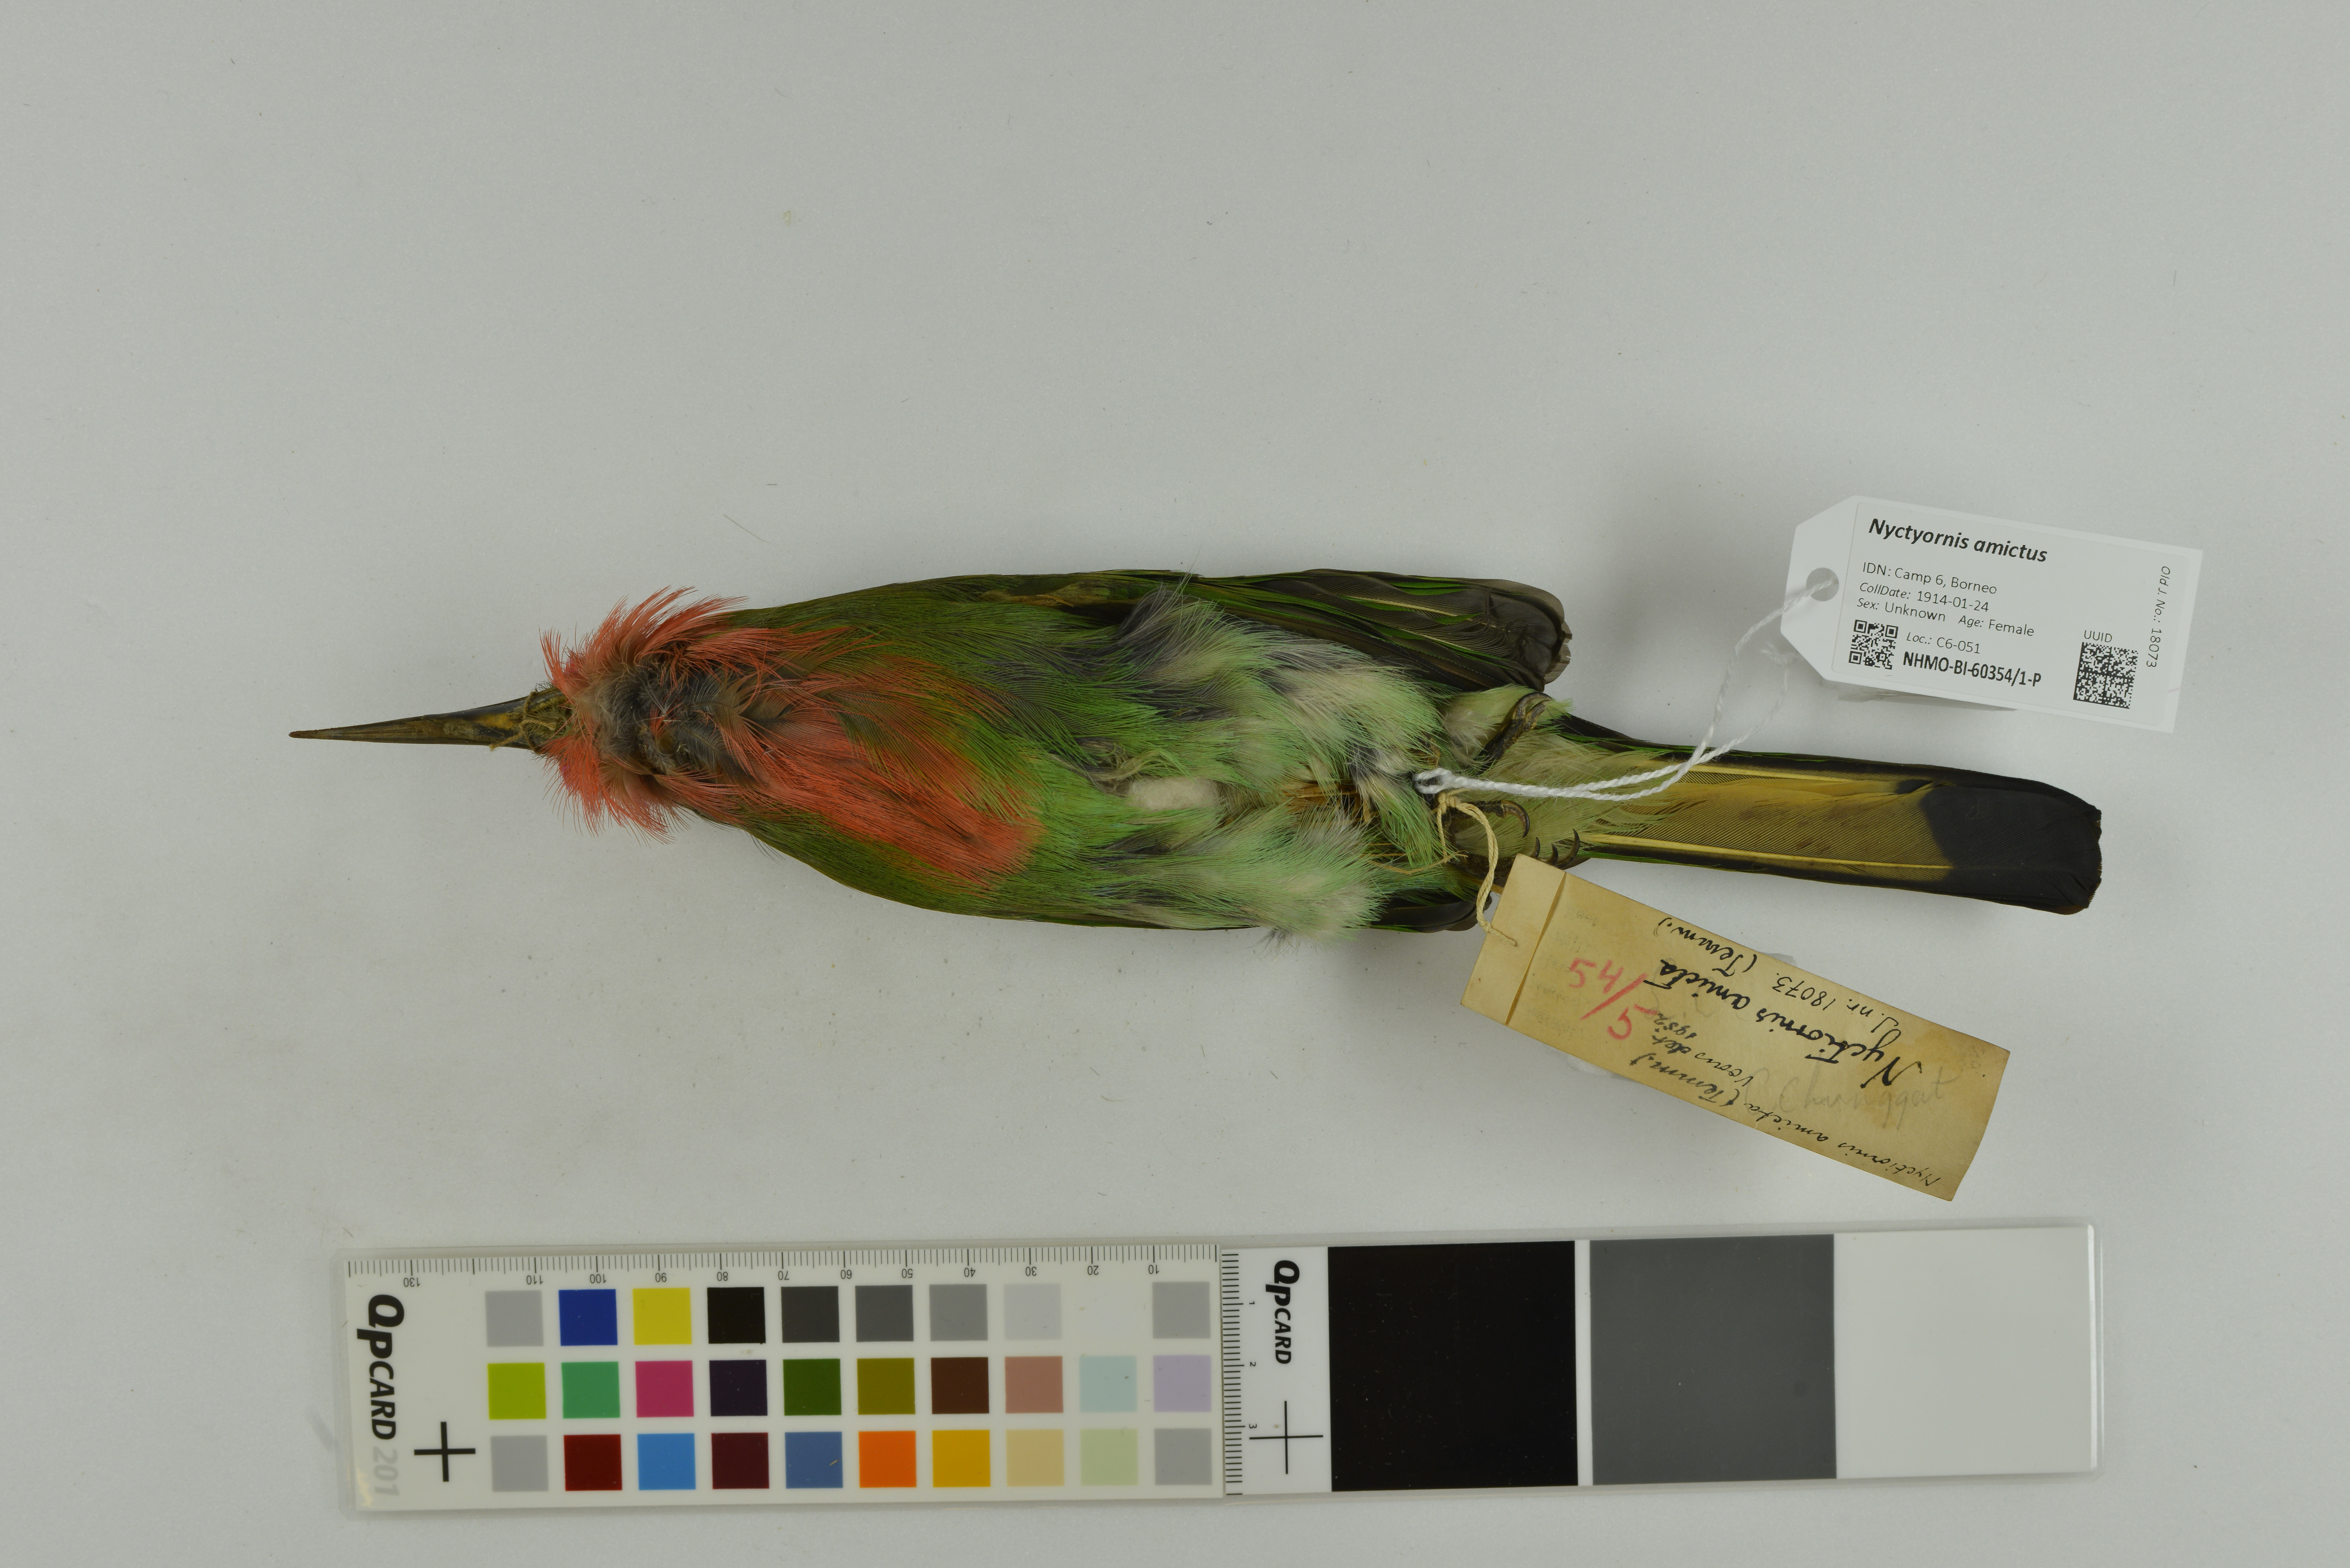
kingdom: Animalia
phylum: Chordata
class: Aves
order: Coraciiformes
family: Meropidae
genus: Nyctyornis
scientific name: Nyctyornis amictus
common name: Red-bearded bee-eater
